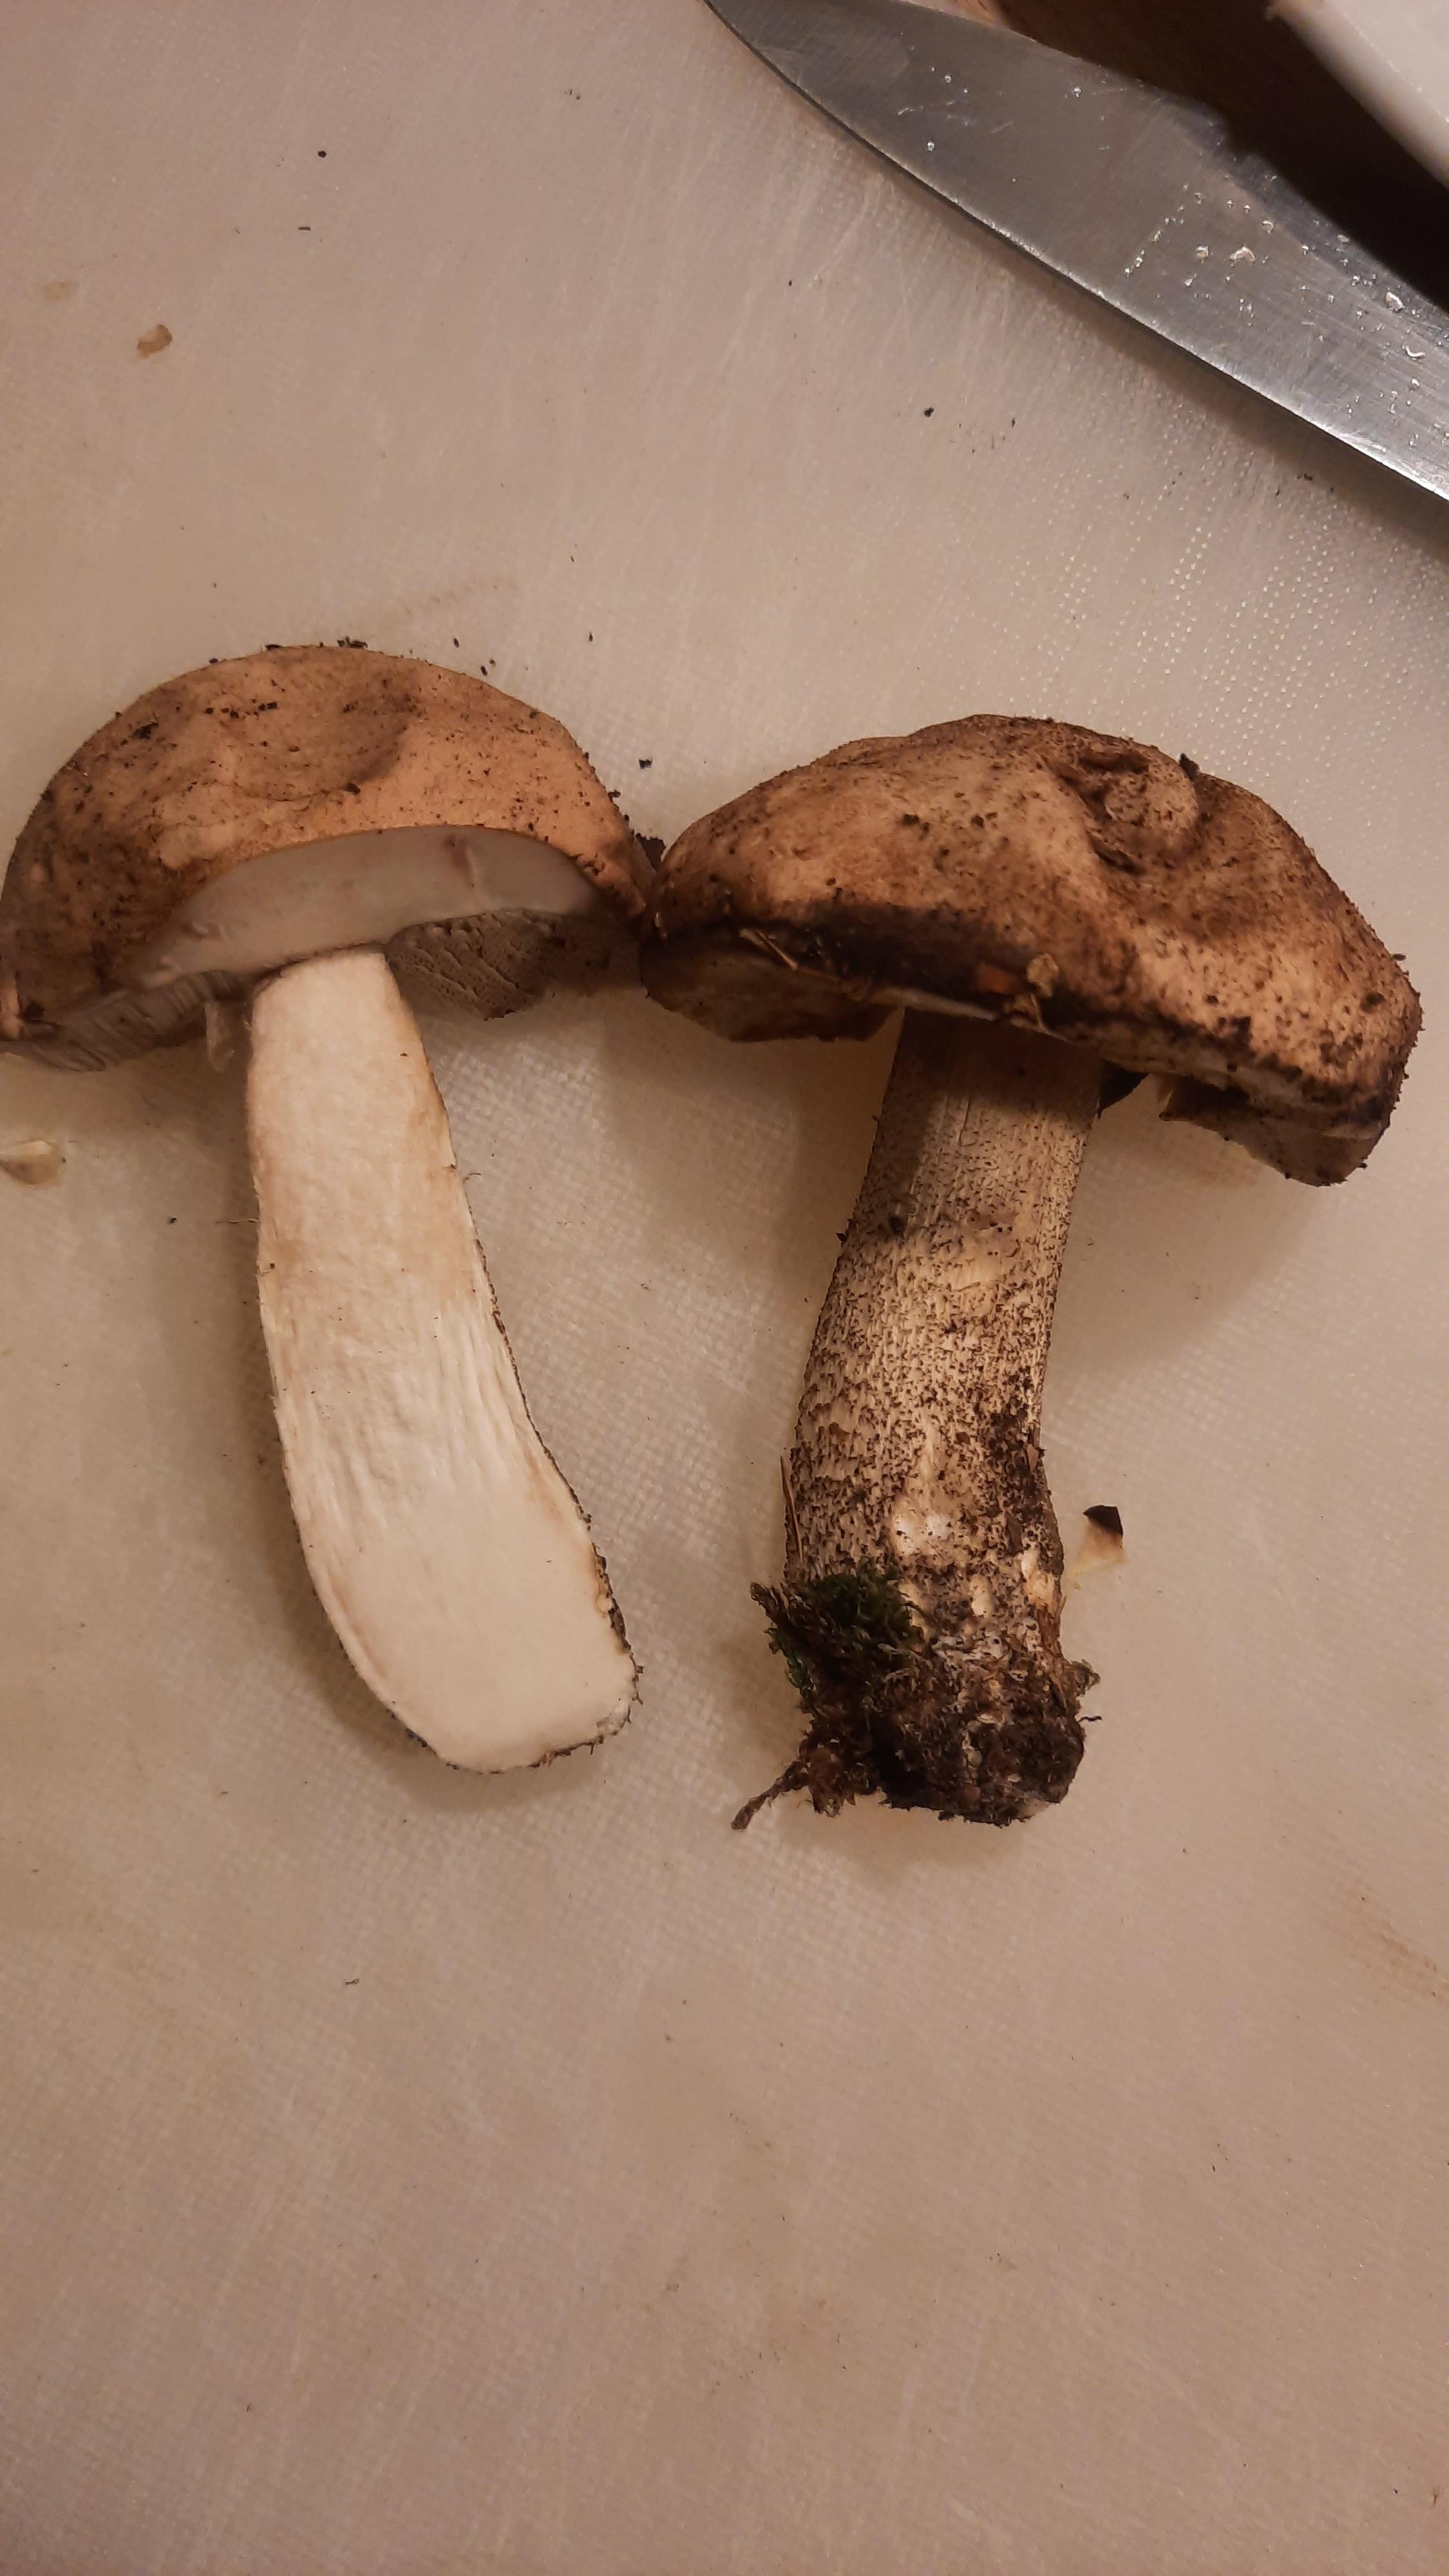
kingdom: Fungi
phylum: Basidiomycota
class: Agaricomycetes
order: Boletales
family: Boletaceae
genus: Leccinum
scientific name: Leccinum scabrum
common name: brun skælrørhat
